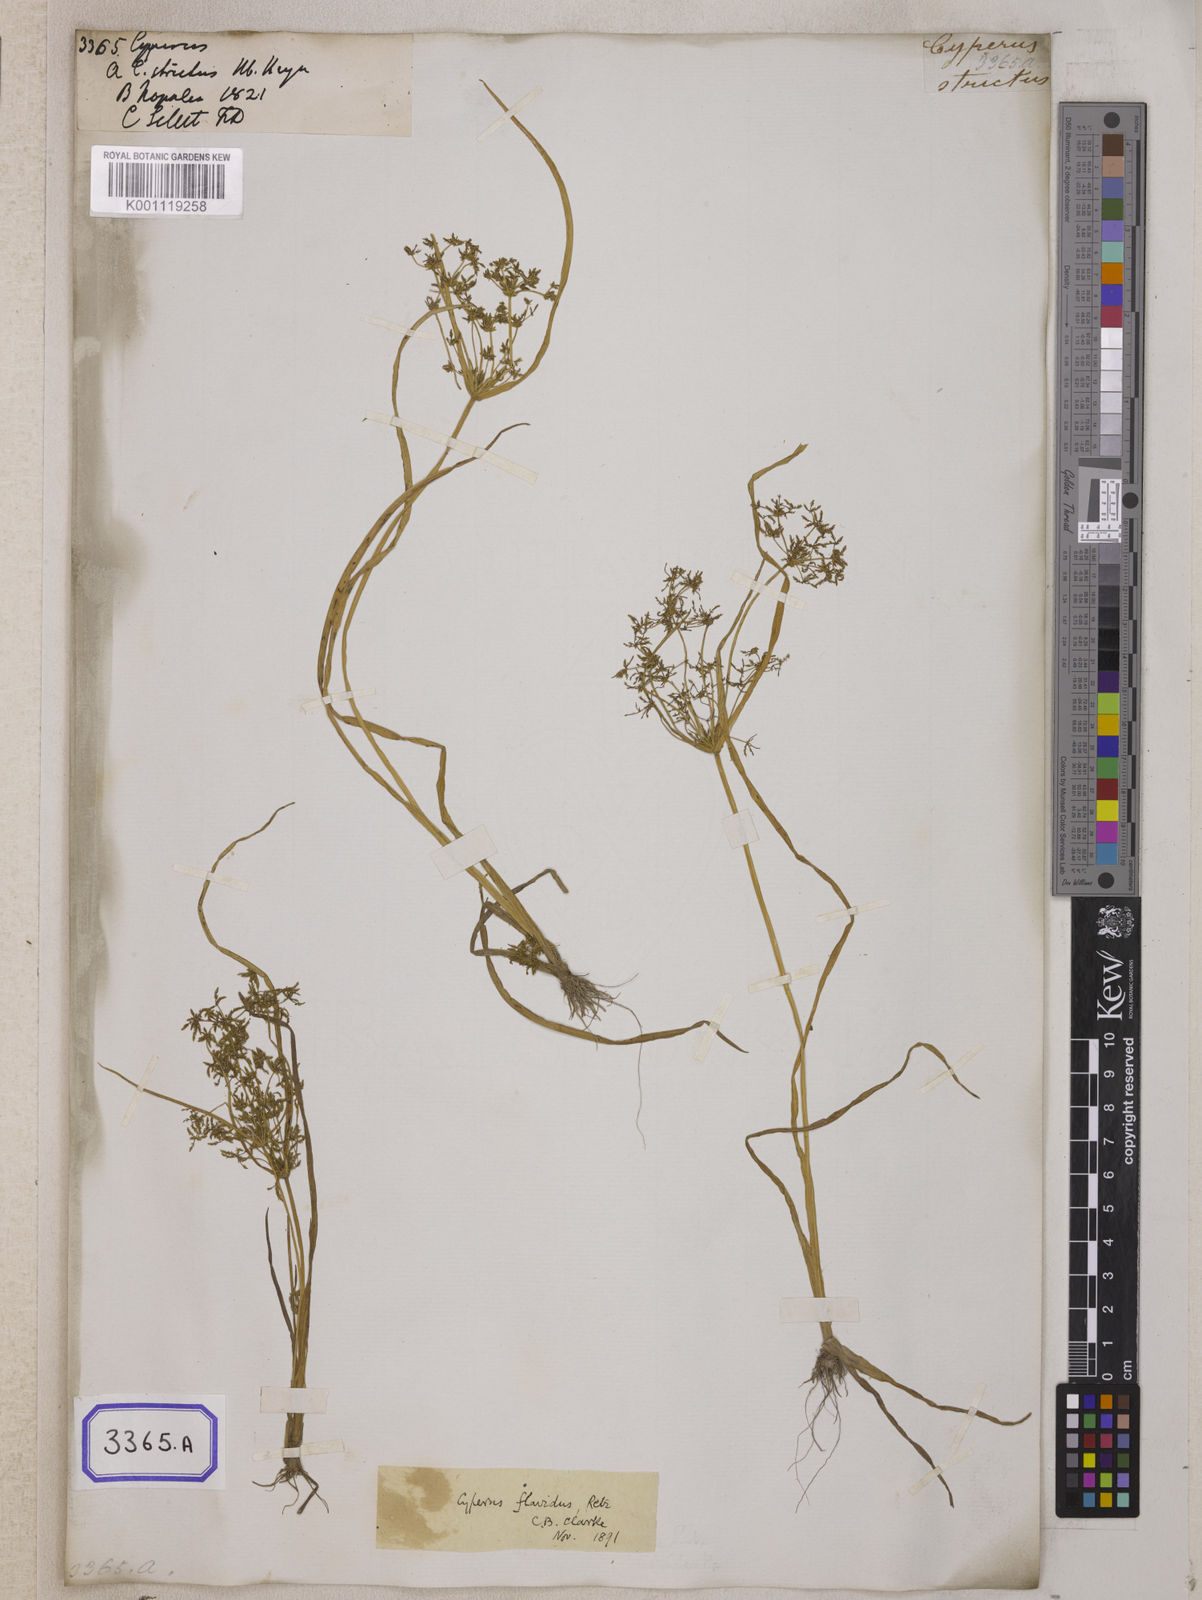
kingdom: Plantae
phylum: Tracheophyta
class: Liliopsida
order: Poales
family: Cyperaceae
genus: Cyperus
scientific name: Cyperus
